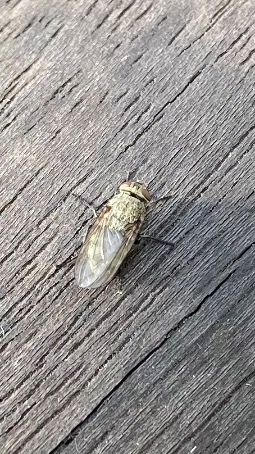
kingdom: Animalia
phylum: Arthropoda
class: Insecta
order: Diptera
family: Polleniidae
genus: Pollenia
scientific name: Pollenia
